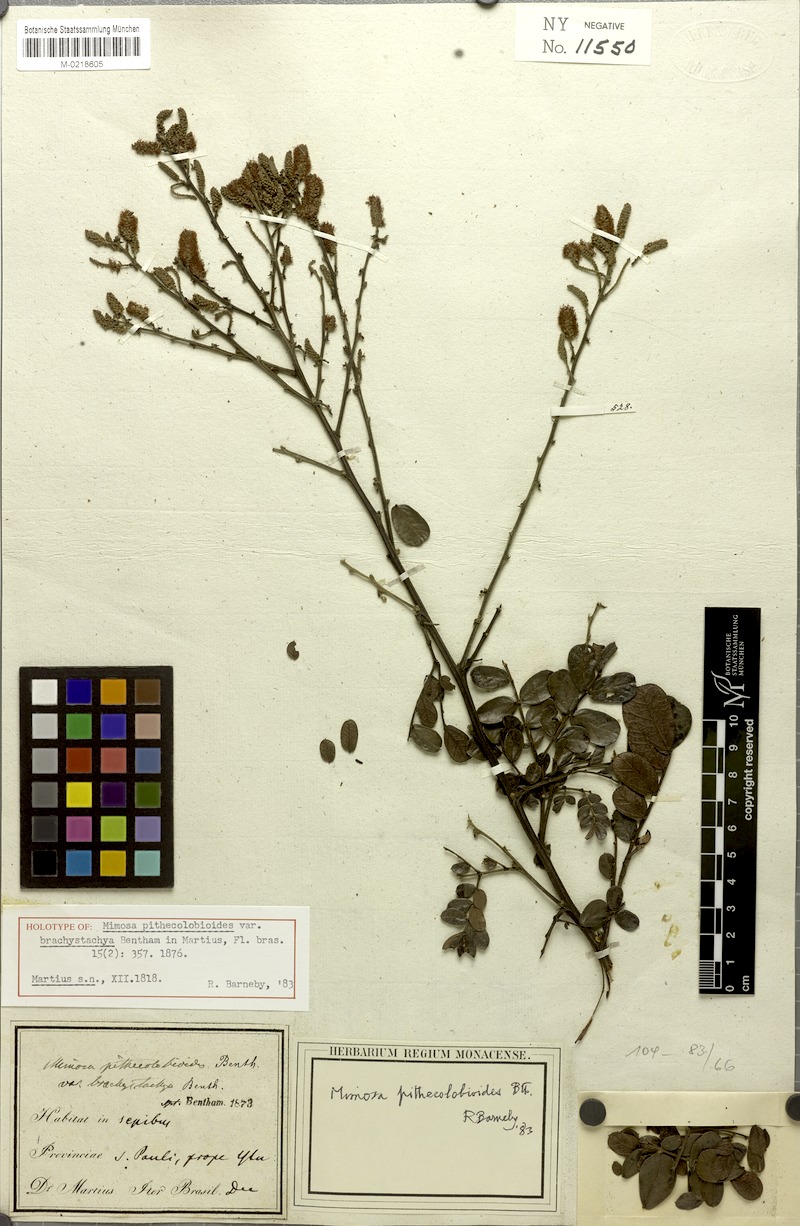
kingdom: Plantae
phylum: Tracheophyta
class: Magnoliopsida
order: Fabales
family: Fabaceae
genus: Mimosa
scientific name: Mimosa pithecolobioides
